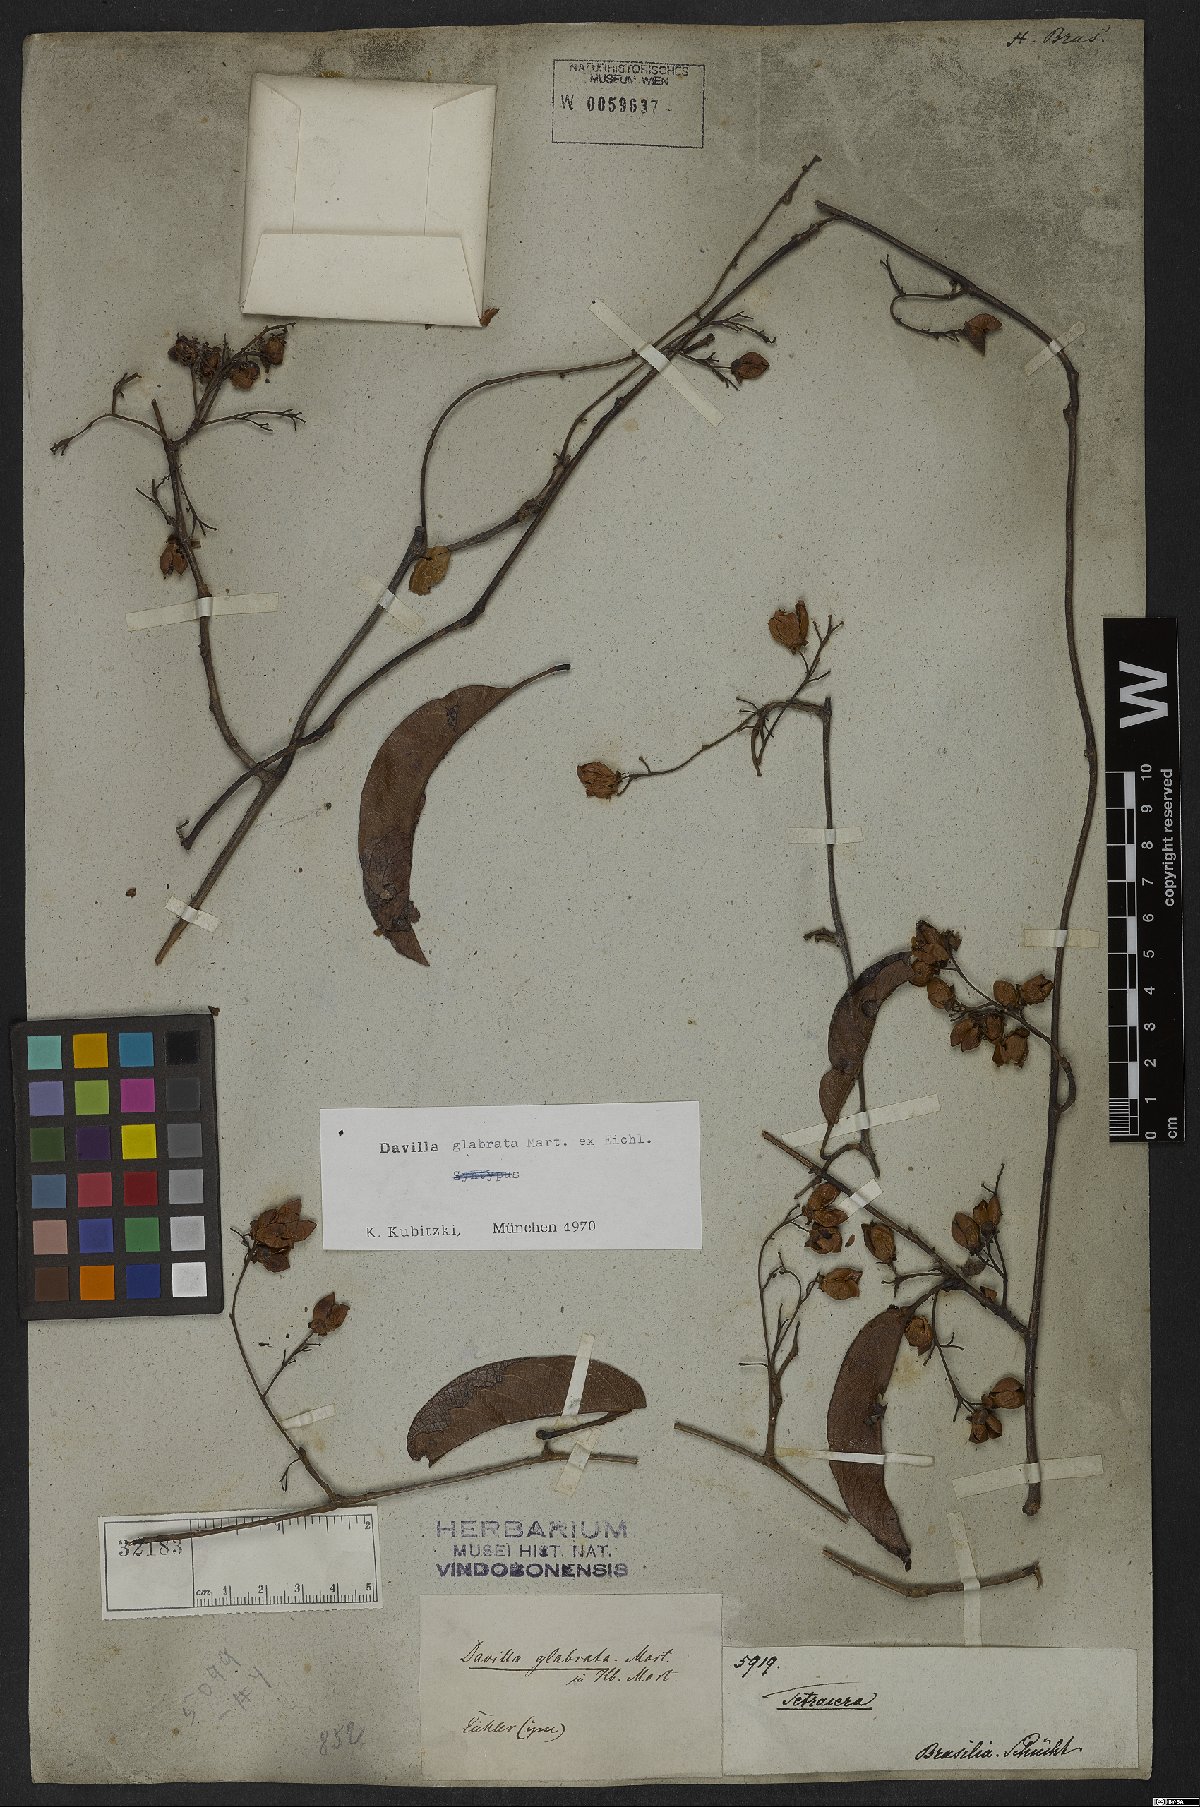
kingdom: Plantae
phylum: Tracheophyta
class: Magnoliopsida
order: Dilleniales
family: Dilleniaceae
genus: Davilla
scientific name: Davilla glabrata
